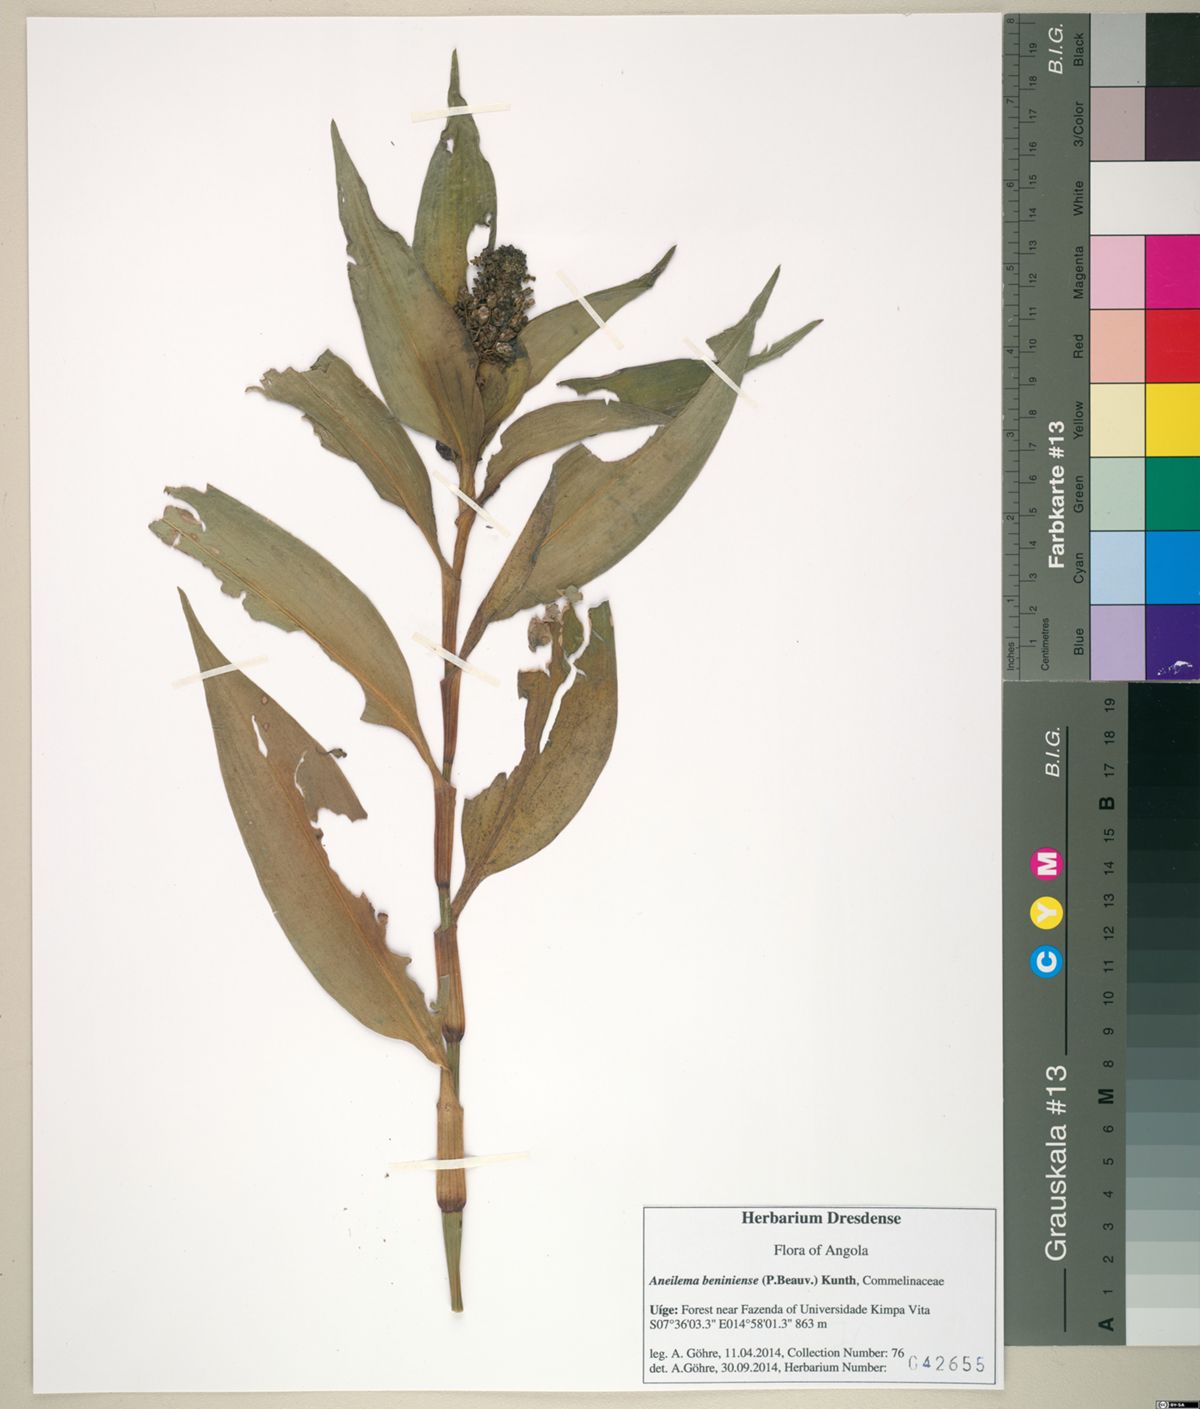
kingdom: Plantae
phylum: Tracheophyta
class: Liliopsida
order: Commelinales
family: Commelinaceae
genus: Aneilema
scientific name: Aneilema beniniense
